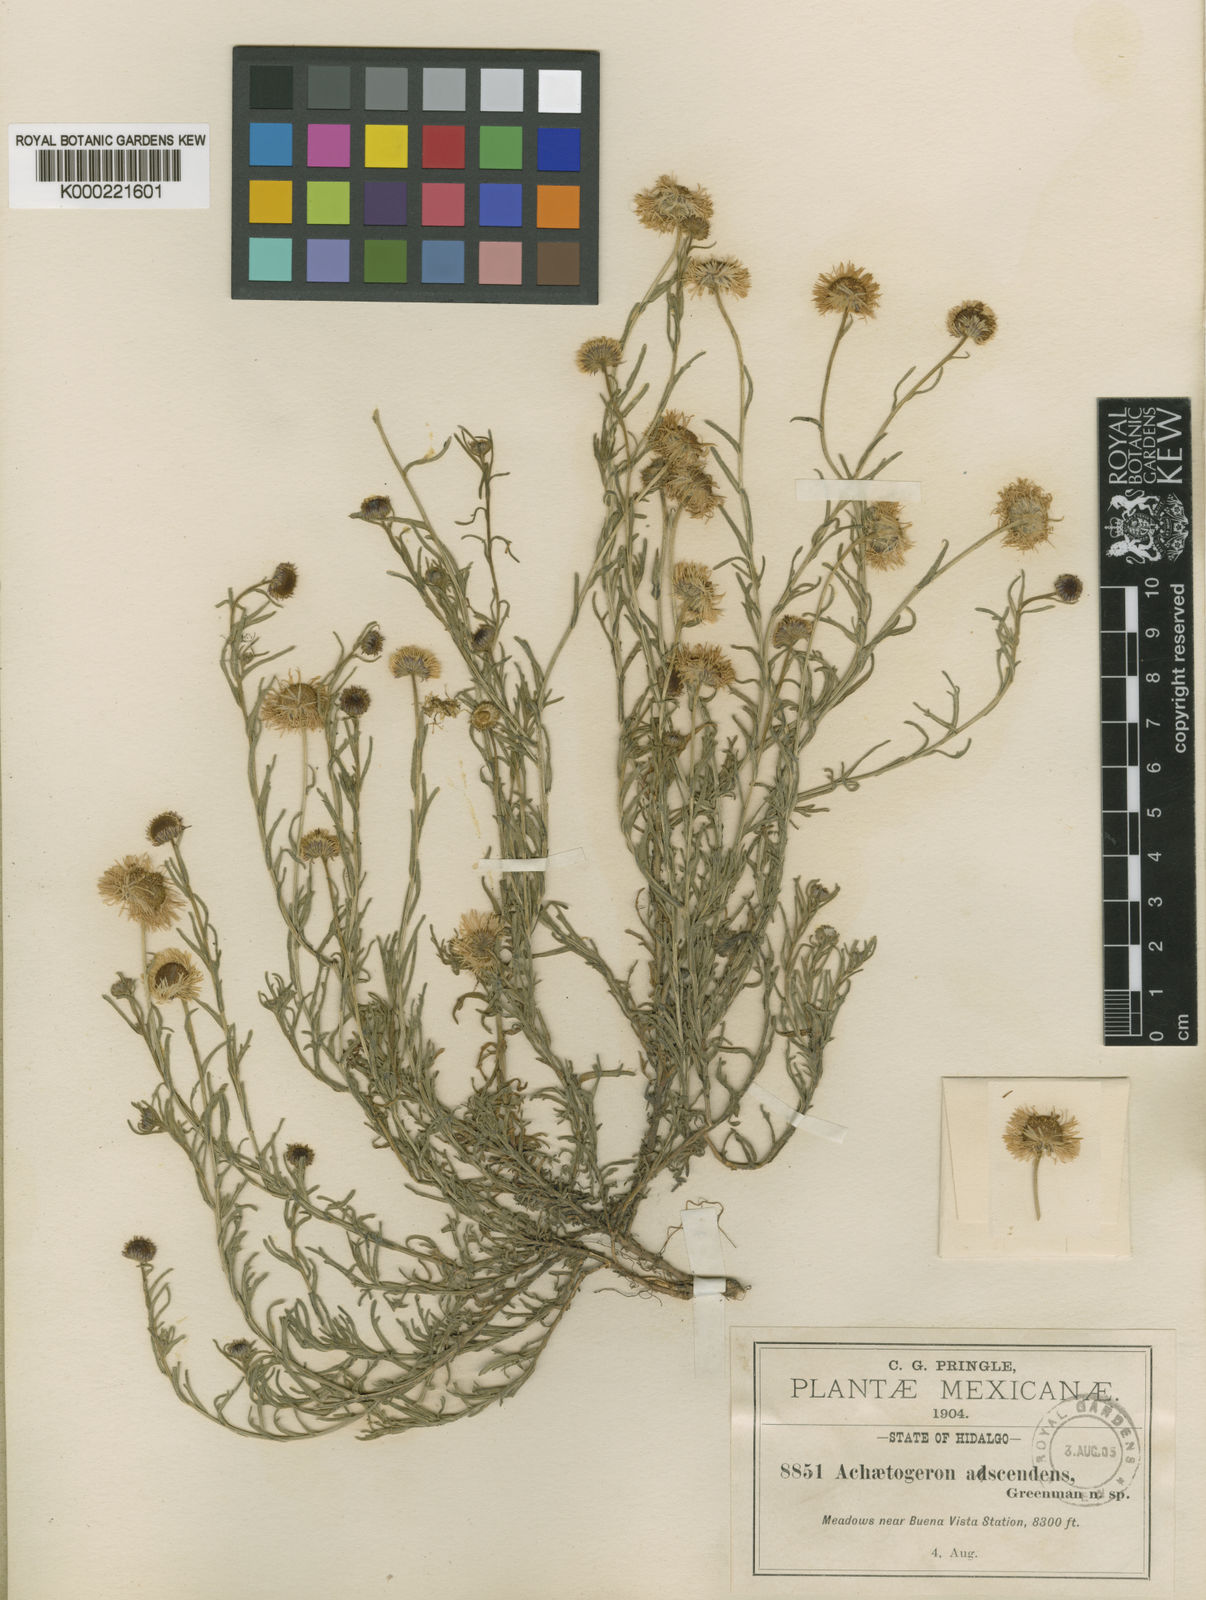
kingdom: Plantae
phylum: Tracheophyta
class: Magnoliopsida
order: Asterales
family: Asteraceae
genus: Erigeron
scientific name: Erigeron adscendens
